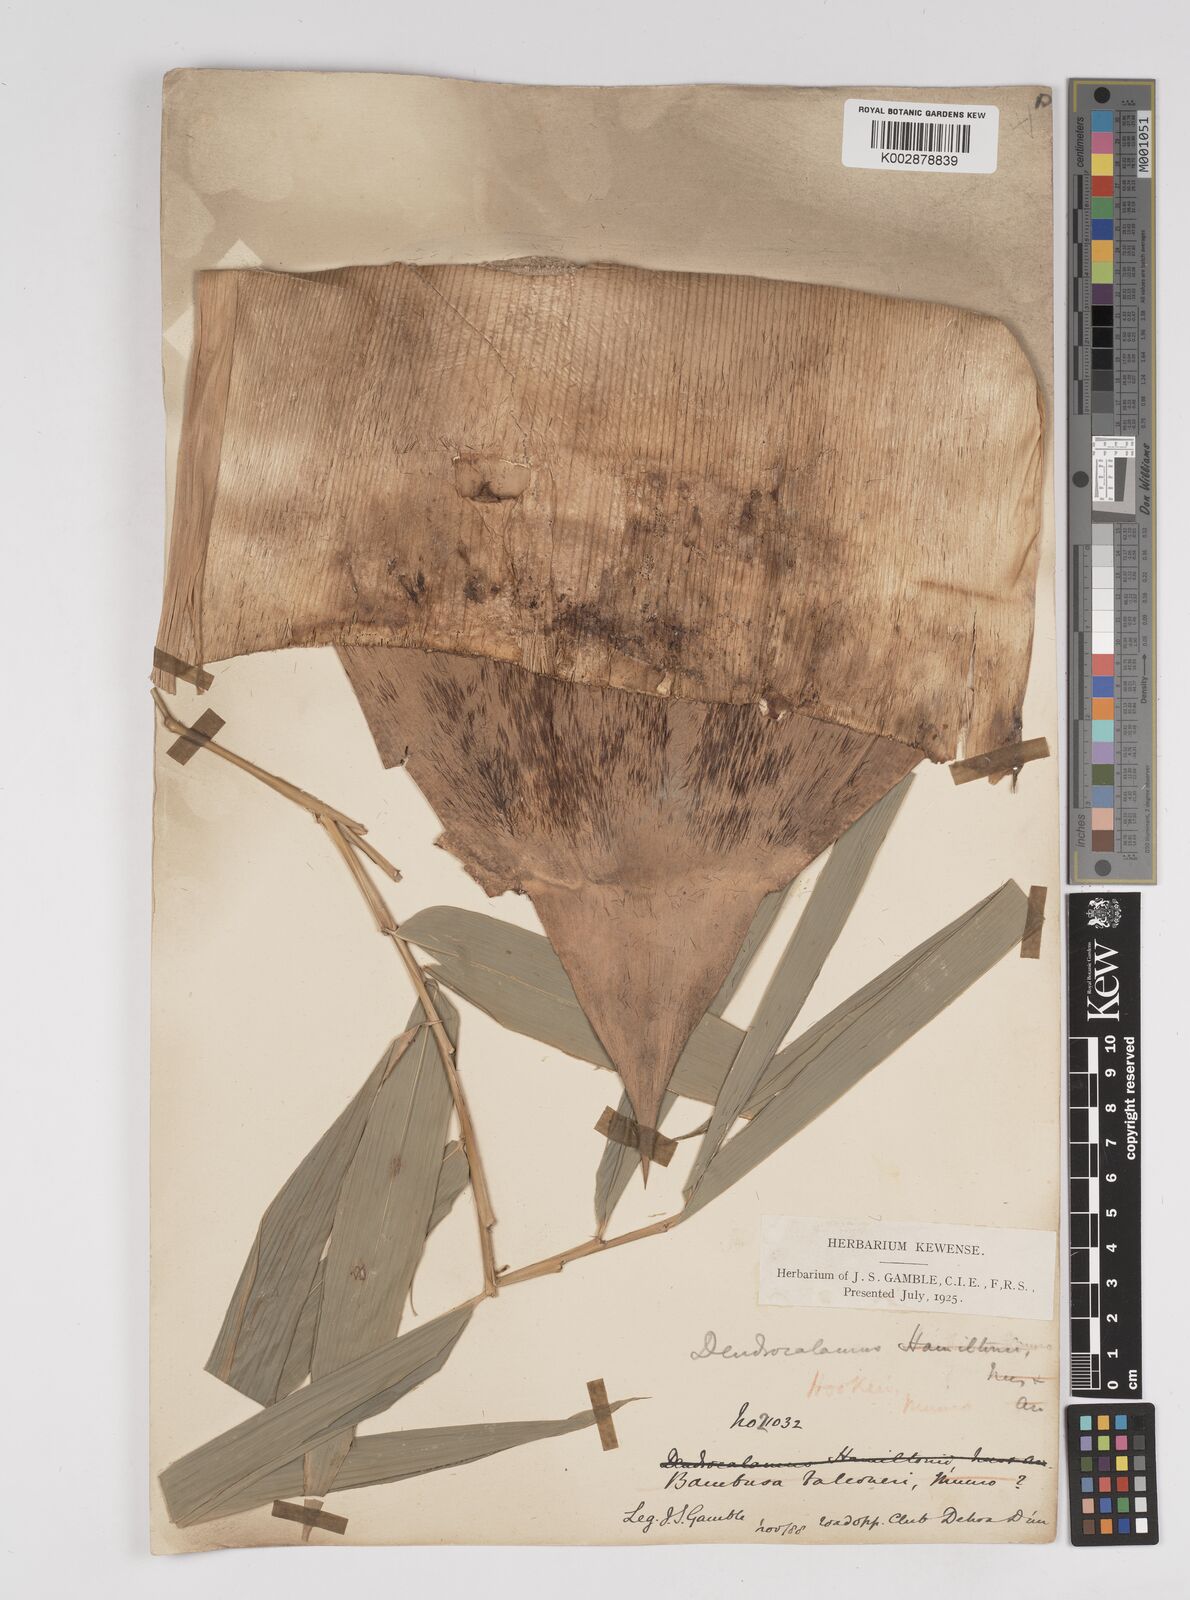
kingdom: Plantae
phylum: Tracheophyta
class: Liliopsida
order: Poales
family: Poaceae
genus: Dendrocalamus
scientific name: Dendrocalamus hookeri
